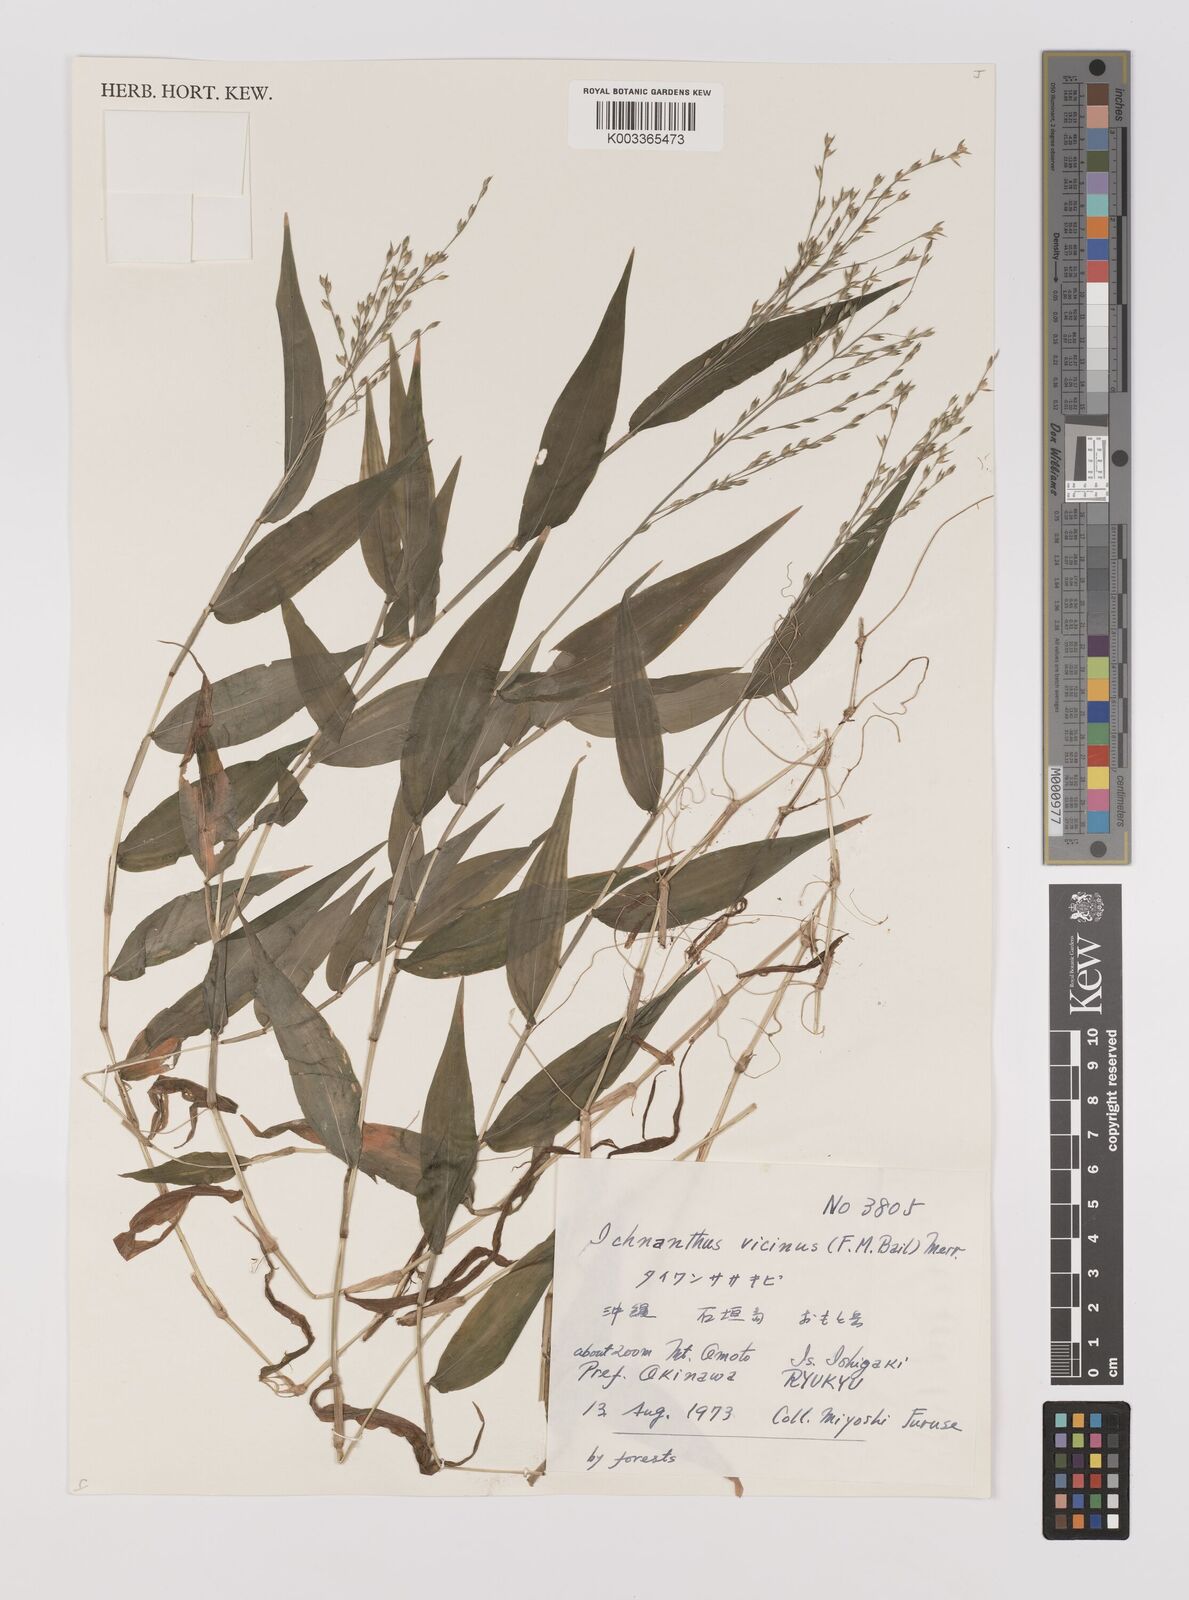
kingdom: Plantae
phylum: Tracheophyta
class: Liliopsida
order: Poales
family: Poaceae
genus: Ichnanthus
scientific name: Ichnanthus pallens
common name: Water grass
